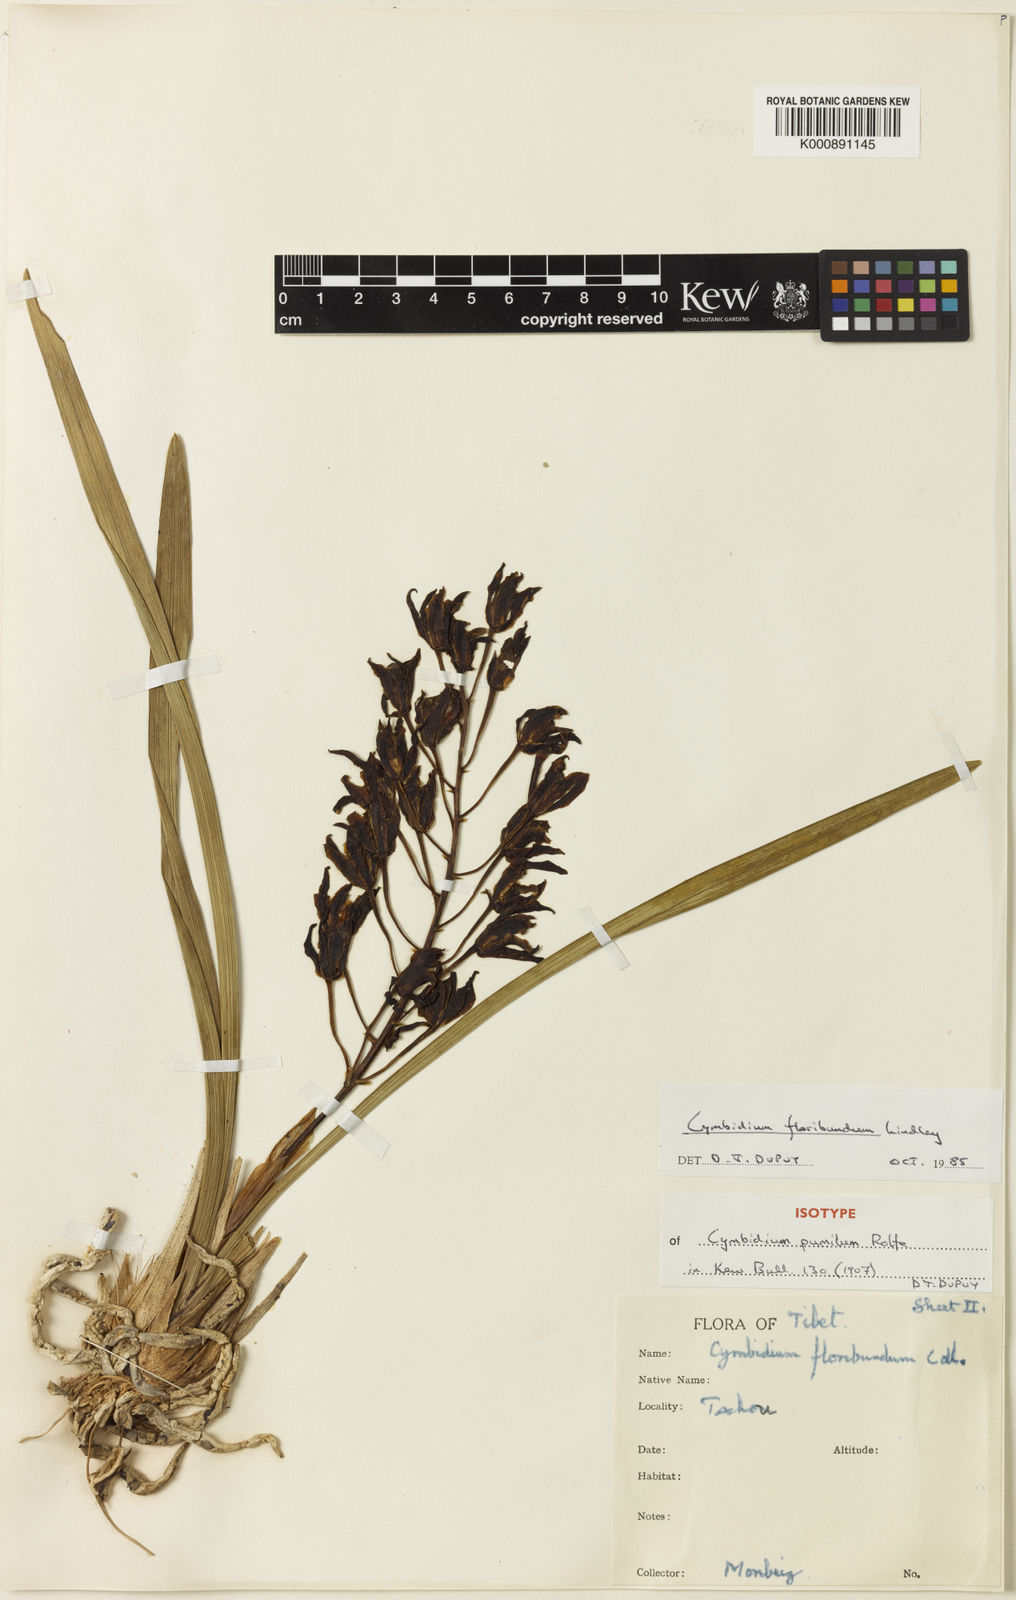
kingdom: Plantae
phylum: Tracheophyta
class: Liliopsida
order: Asparagales
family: Orchidaceae
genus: Cymbidium
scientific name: Cymbidium floribundum
